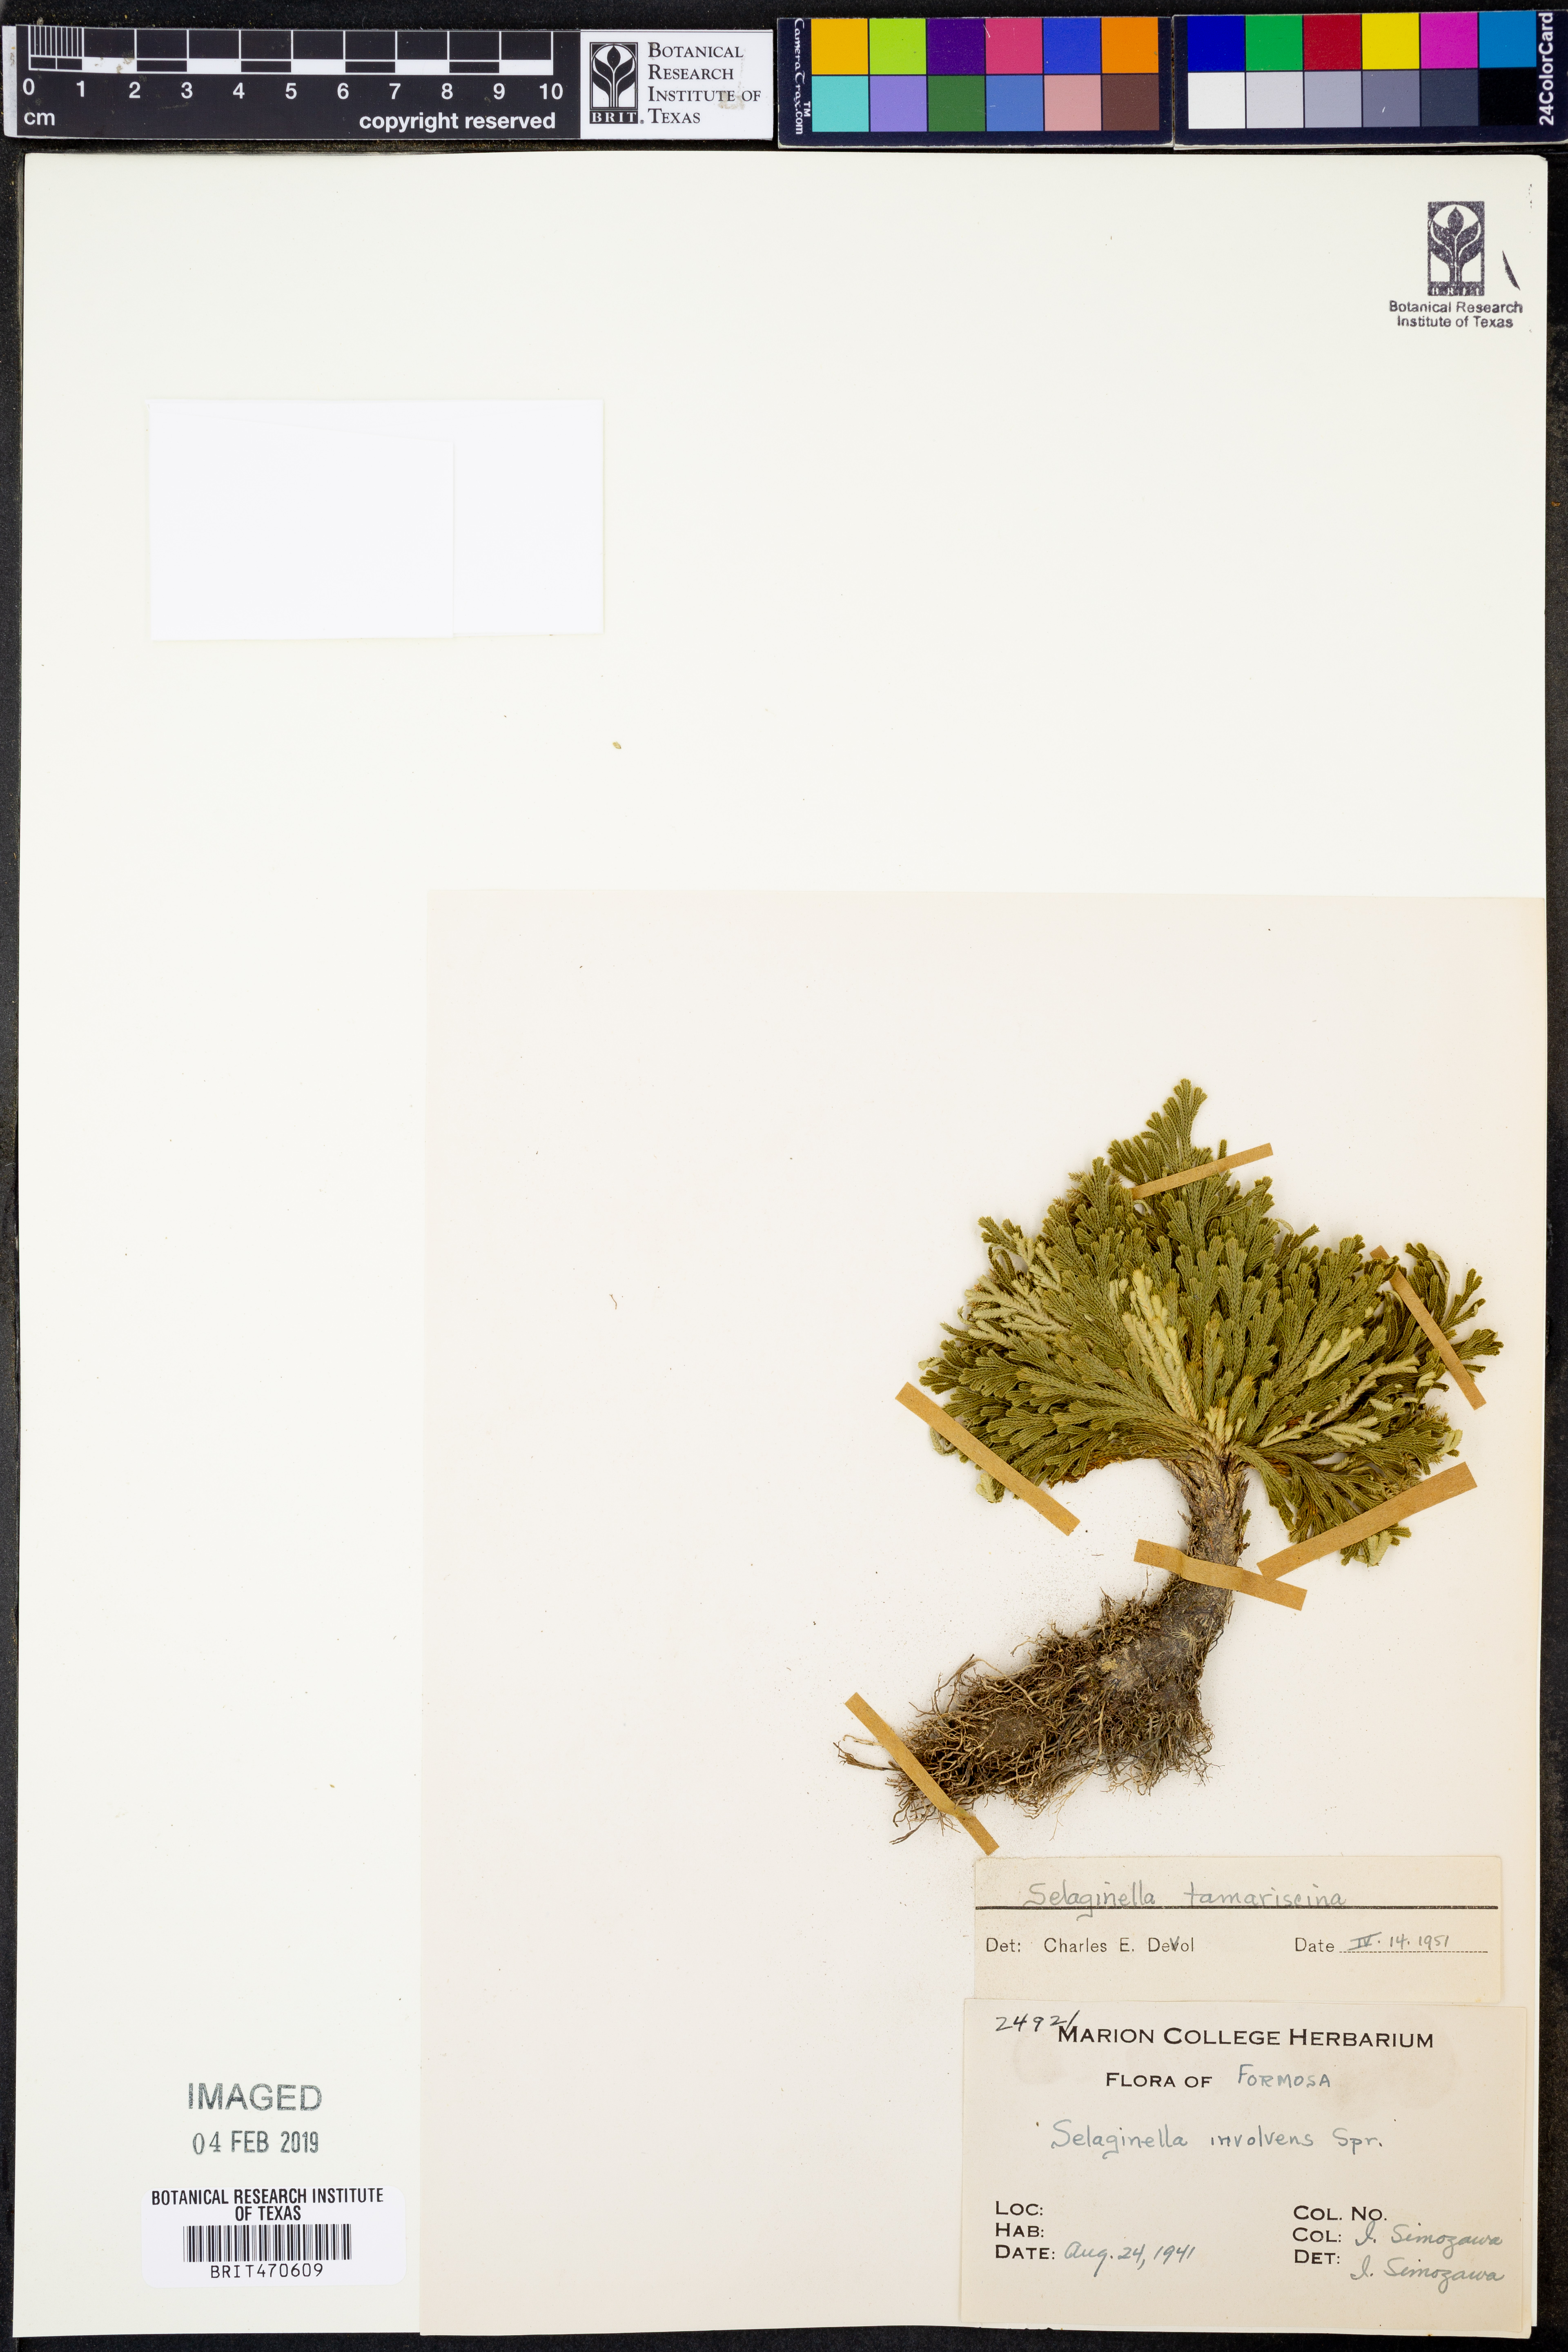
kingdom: Plantae
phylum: Tracheophyta
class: Lycopodiopsida
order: Selaginellales
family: Selaginellaceae
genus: Selaginella
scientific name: Selaginella tamariscina
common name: Little-club-moss
